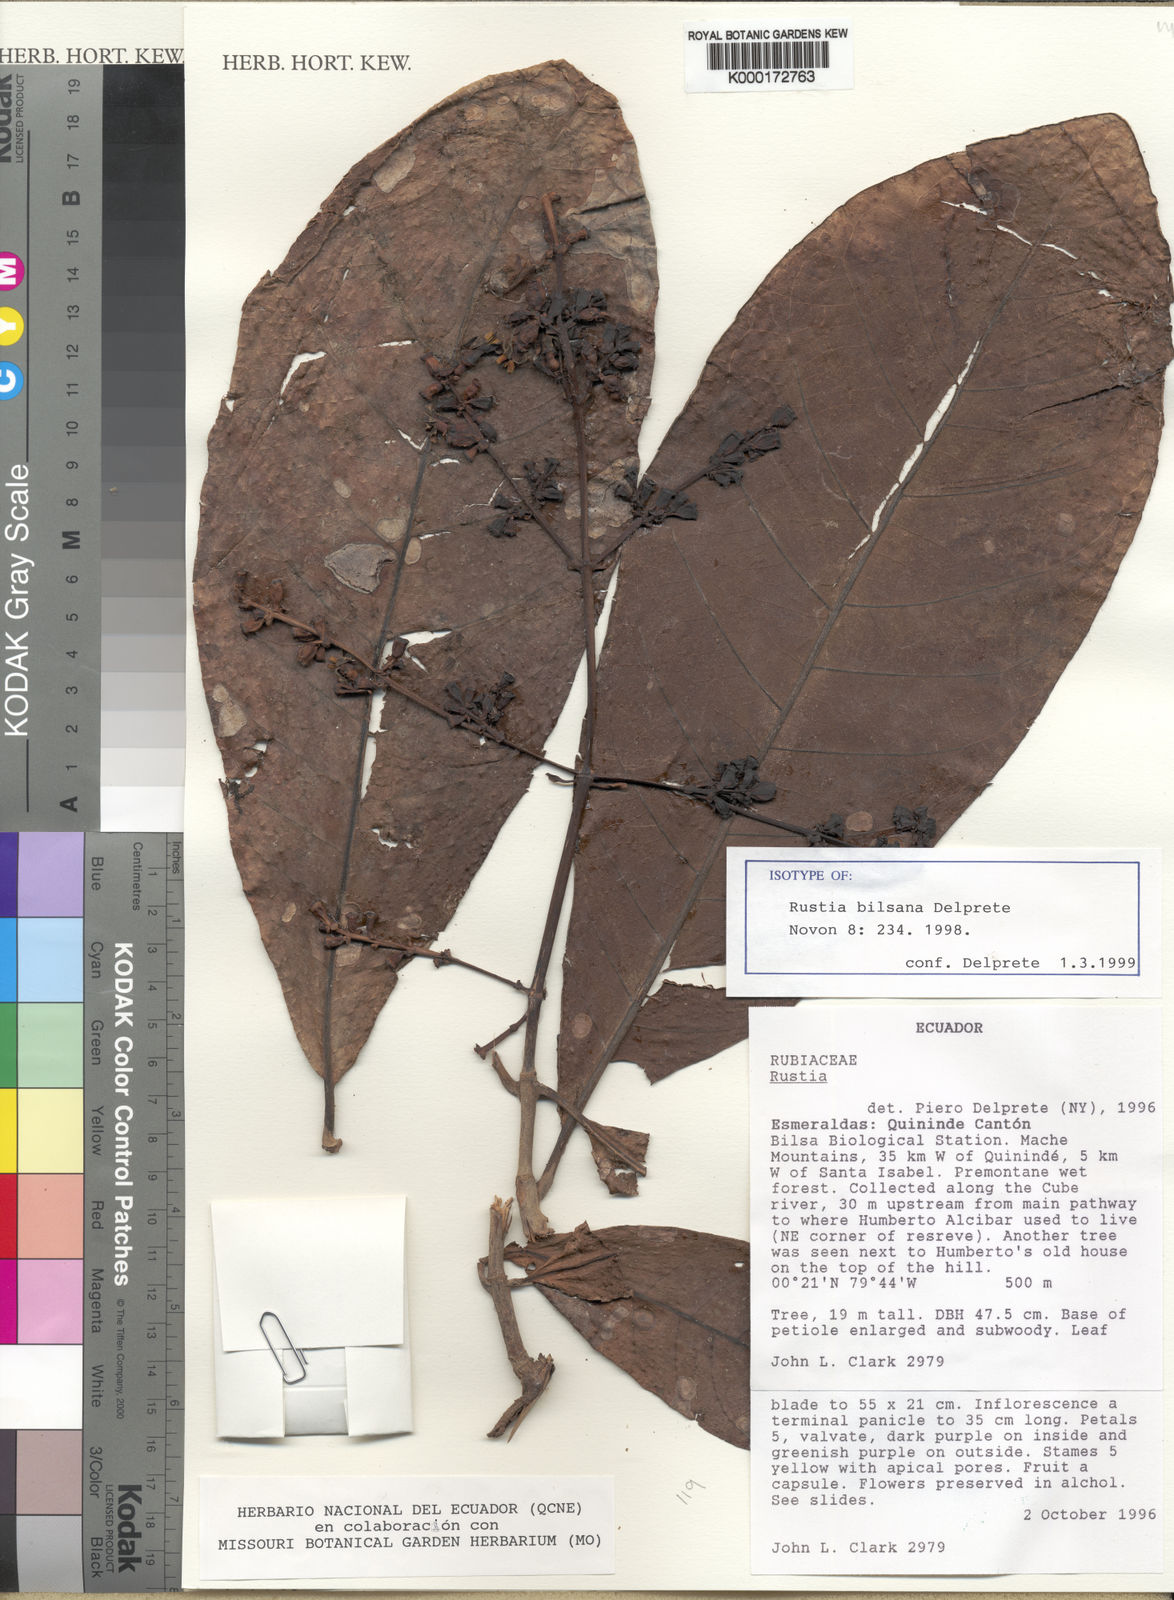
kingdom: Plantae
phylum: Tracheophyta
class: Magnoliopsida
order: Gentianales
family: Rubiaceae
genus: Rustia
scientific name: Rustia bilsana
